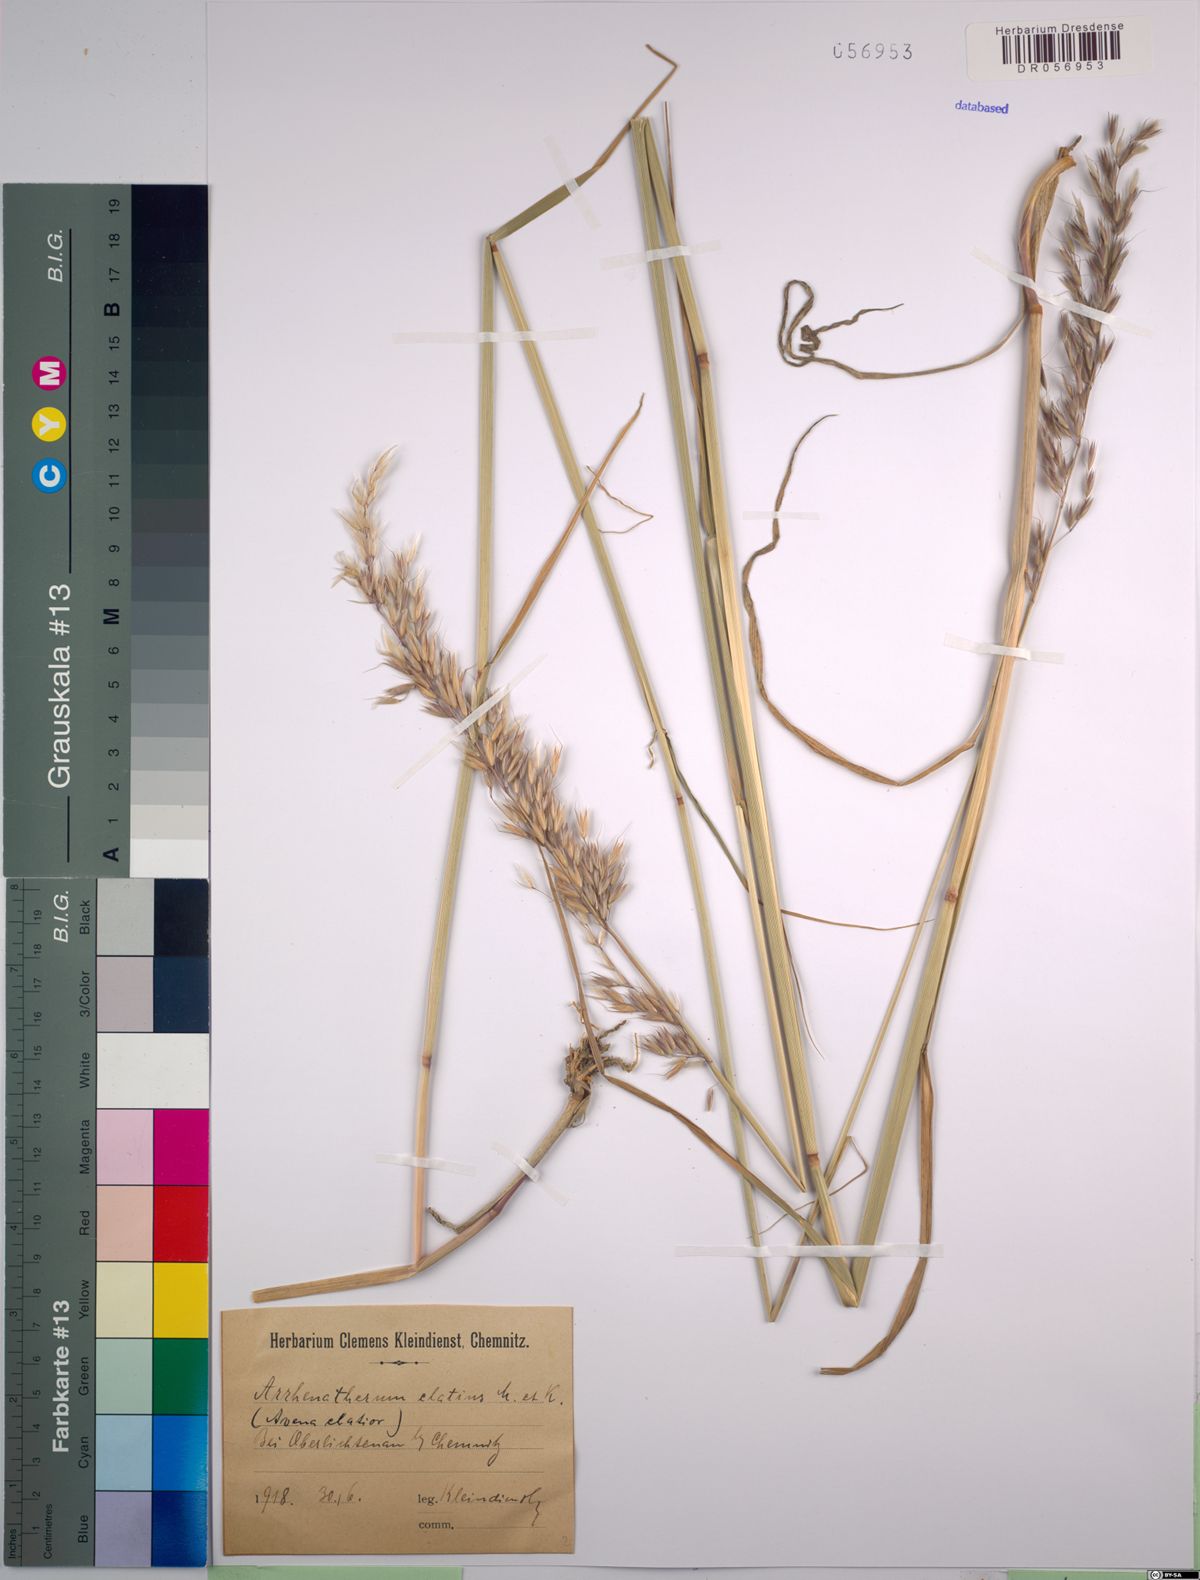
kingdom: Plantae
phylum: Tracheophyta
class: Liliopsida
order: Poales
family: Poaceae
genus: Arrhenatherum
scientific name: Arrhenatherum elatius
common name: Tall oatgrass
